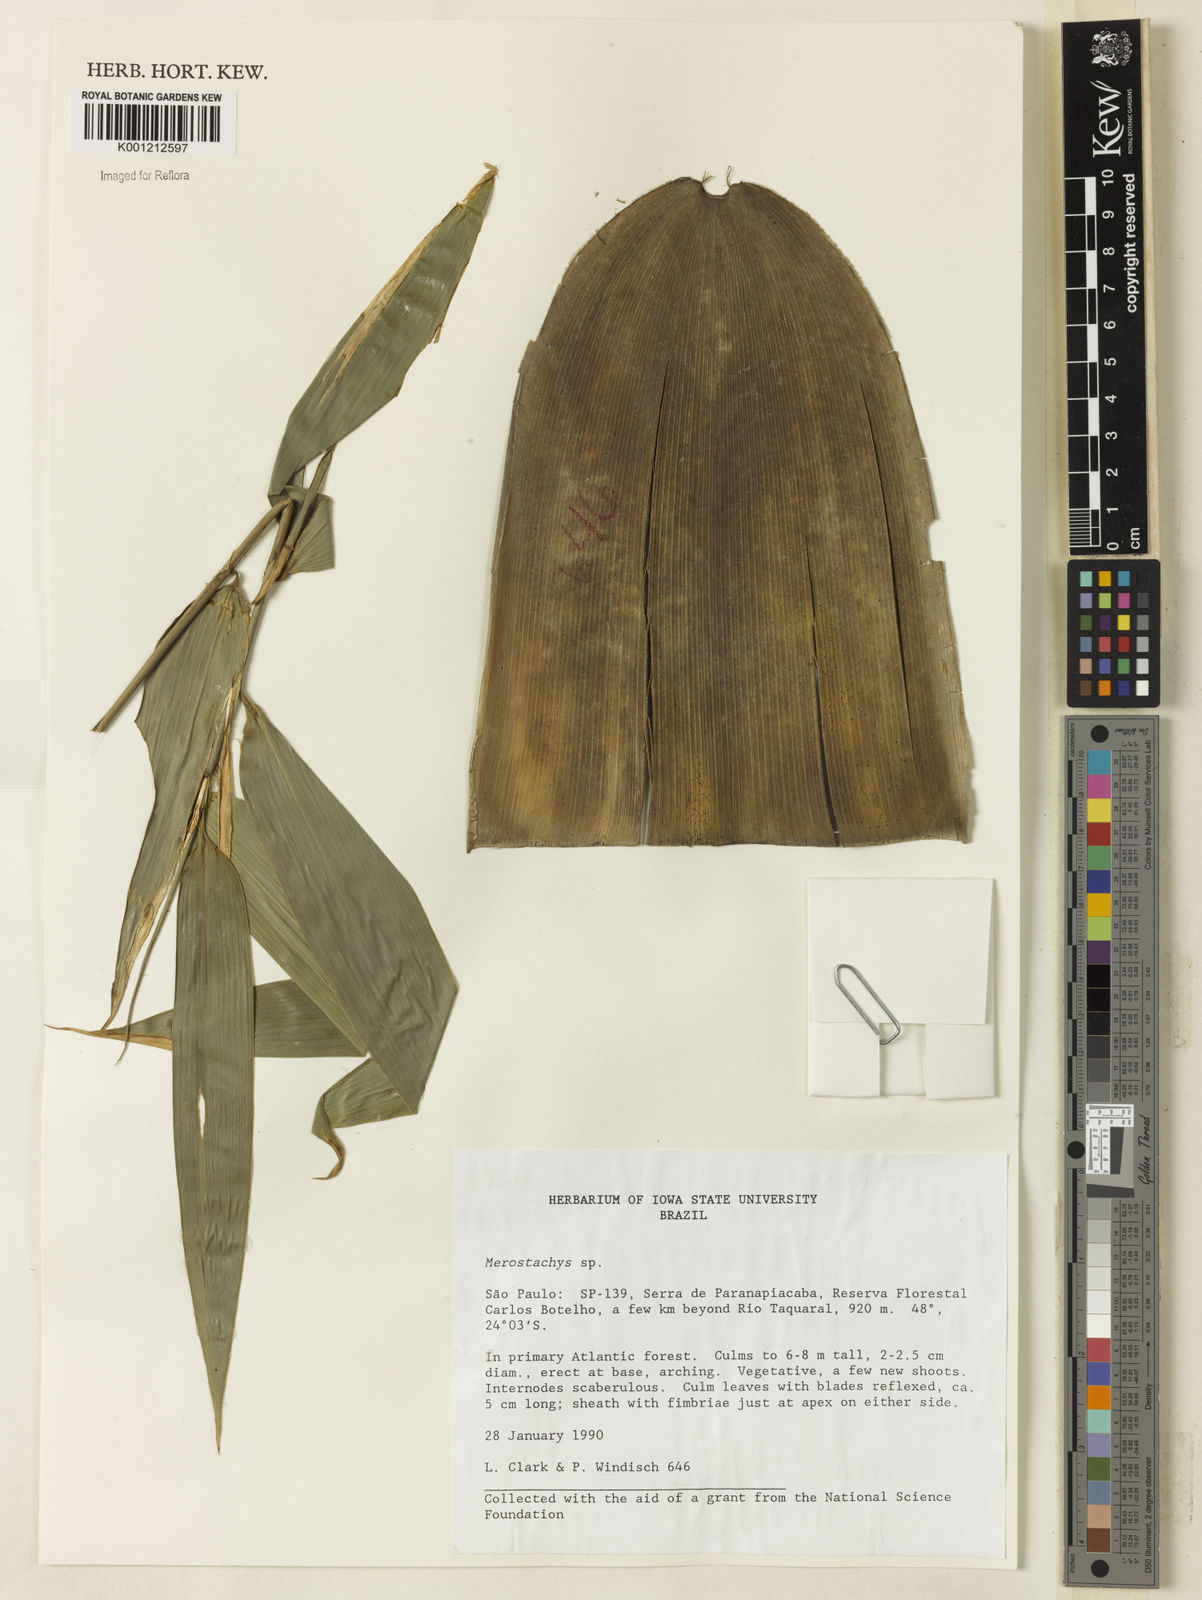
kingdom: Plantae
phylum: Tracheophyta
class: Liliopsida
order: Poales
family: Poaceae
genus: Merostachys
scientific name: Merostachys
